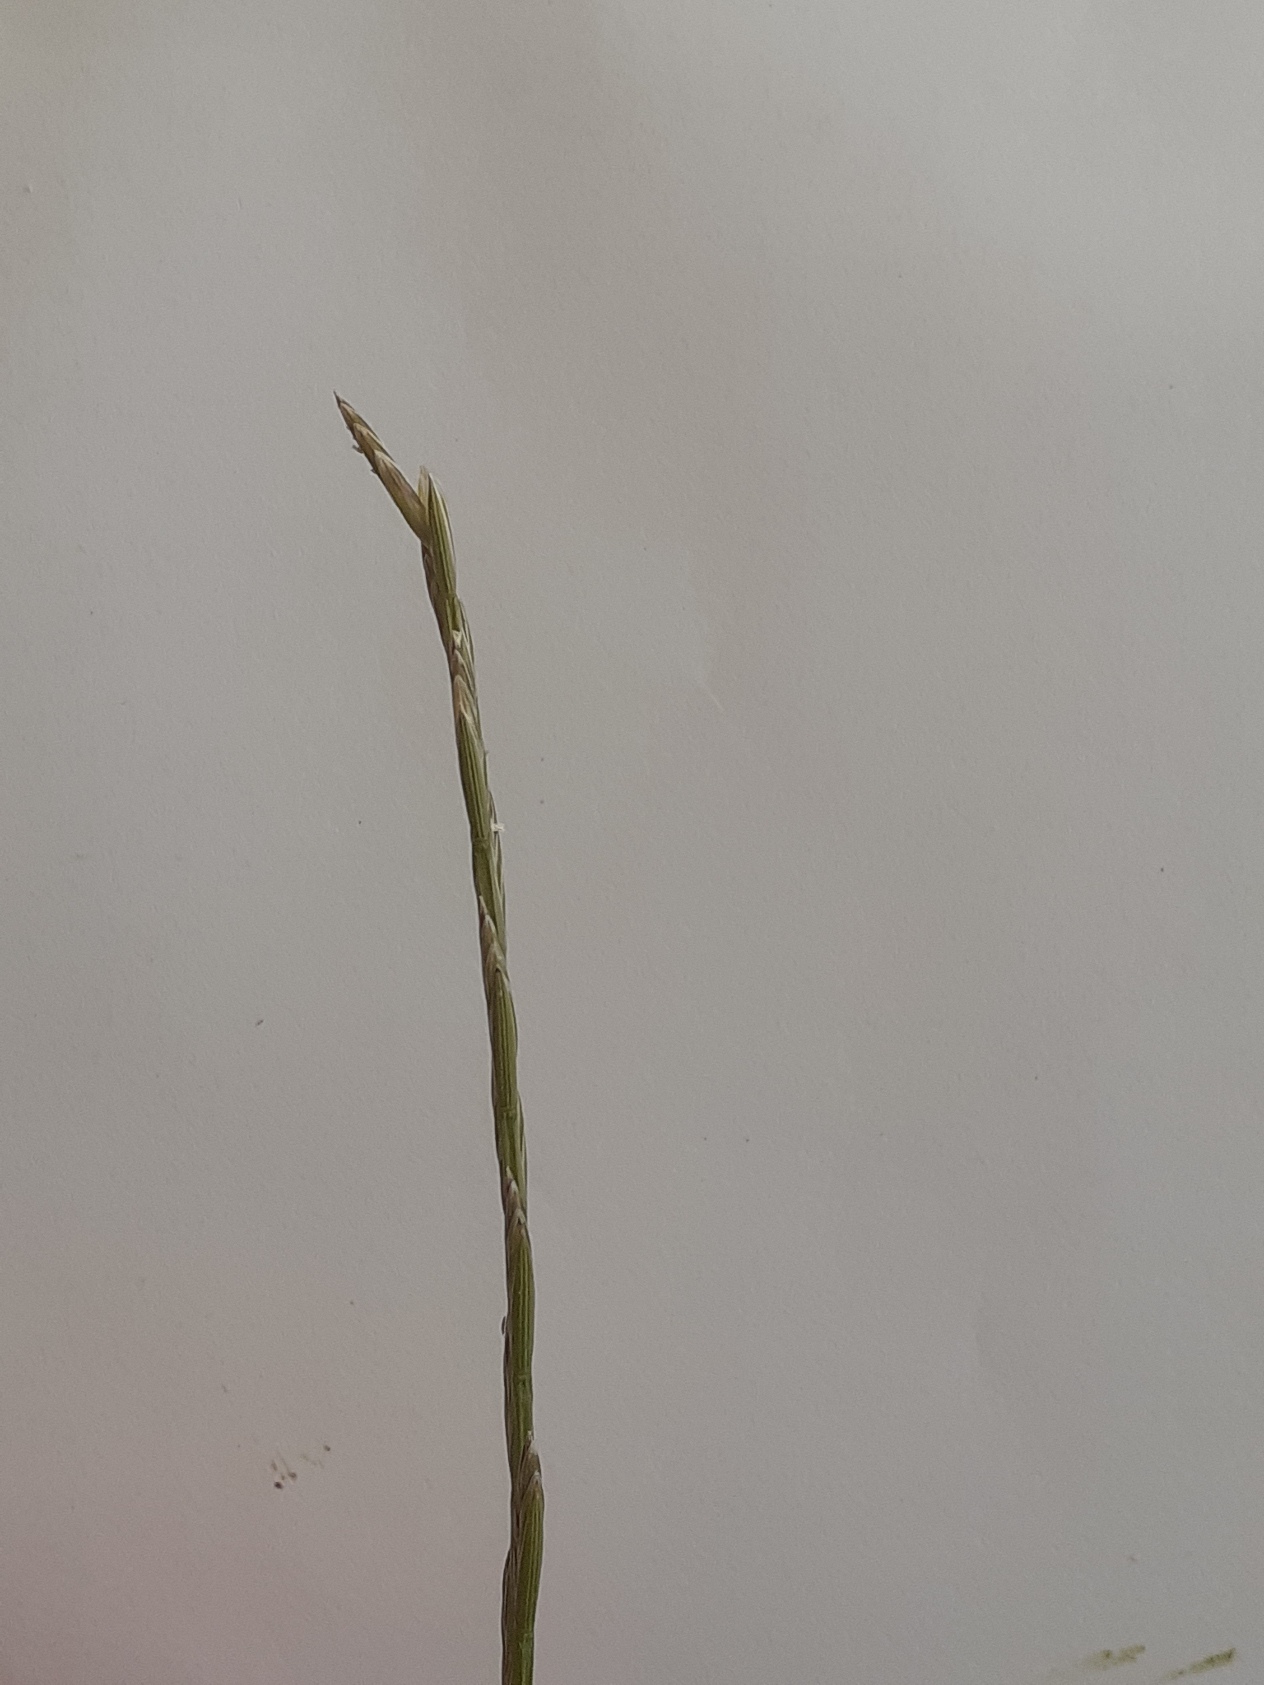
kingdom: Plantae
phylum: Tracheophyta
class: Liliopsida
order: Poales
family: Poaceae
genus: Lolium
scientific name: Lolium perenne
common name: Almindelig rajgræs
